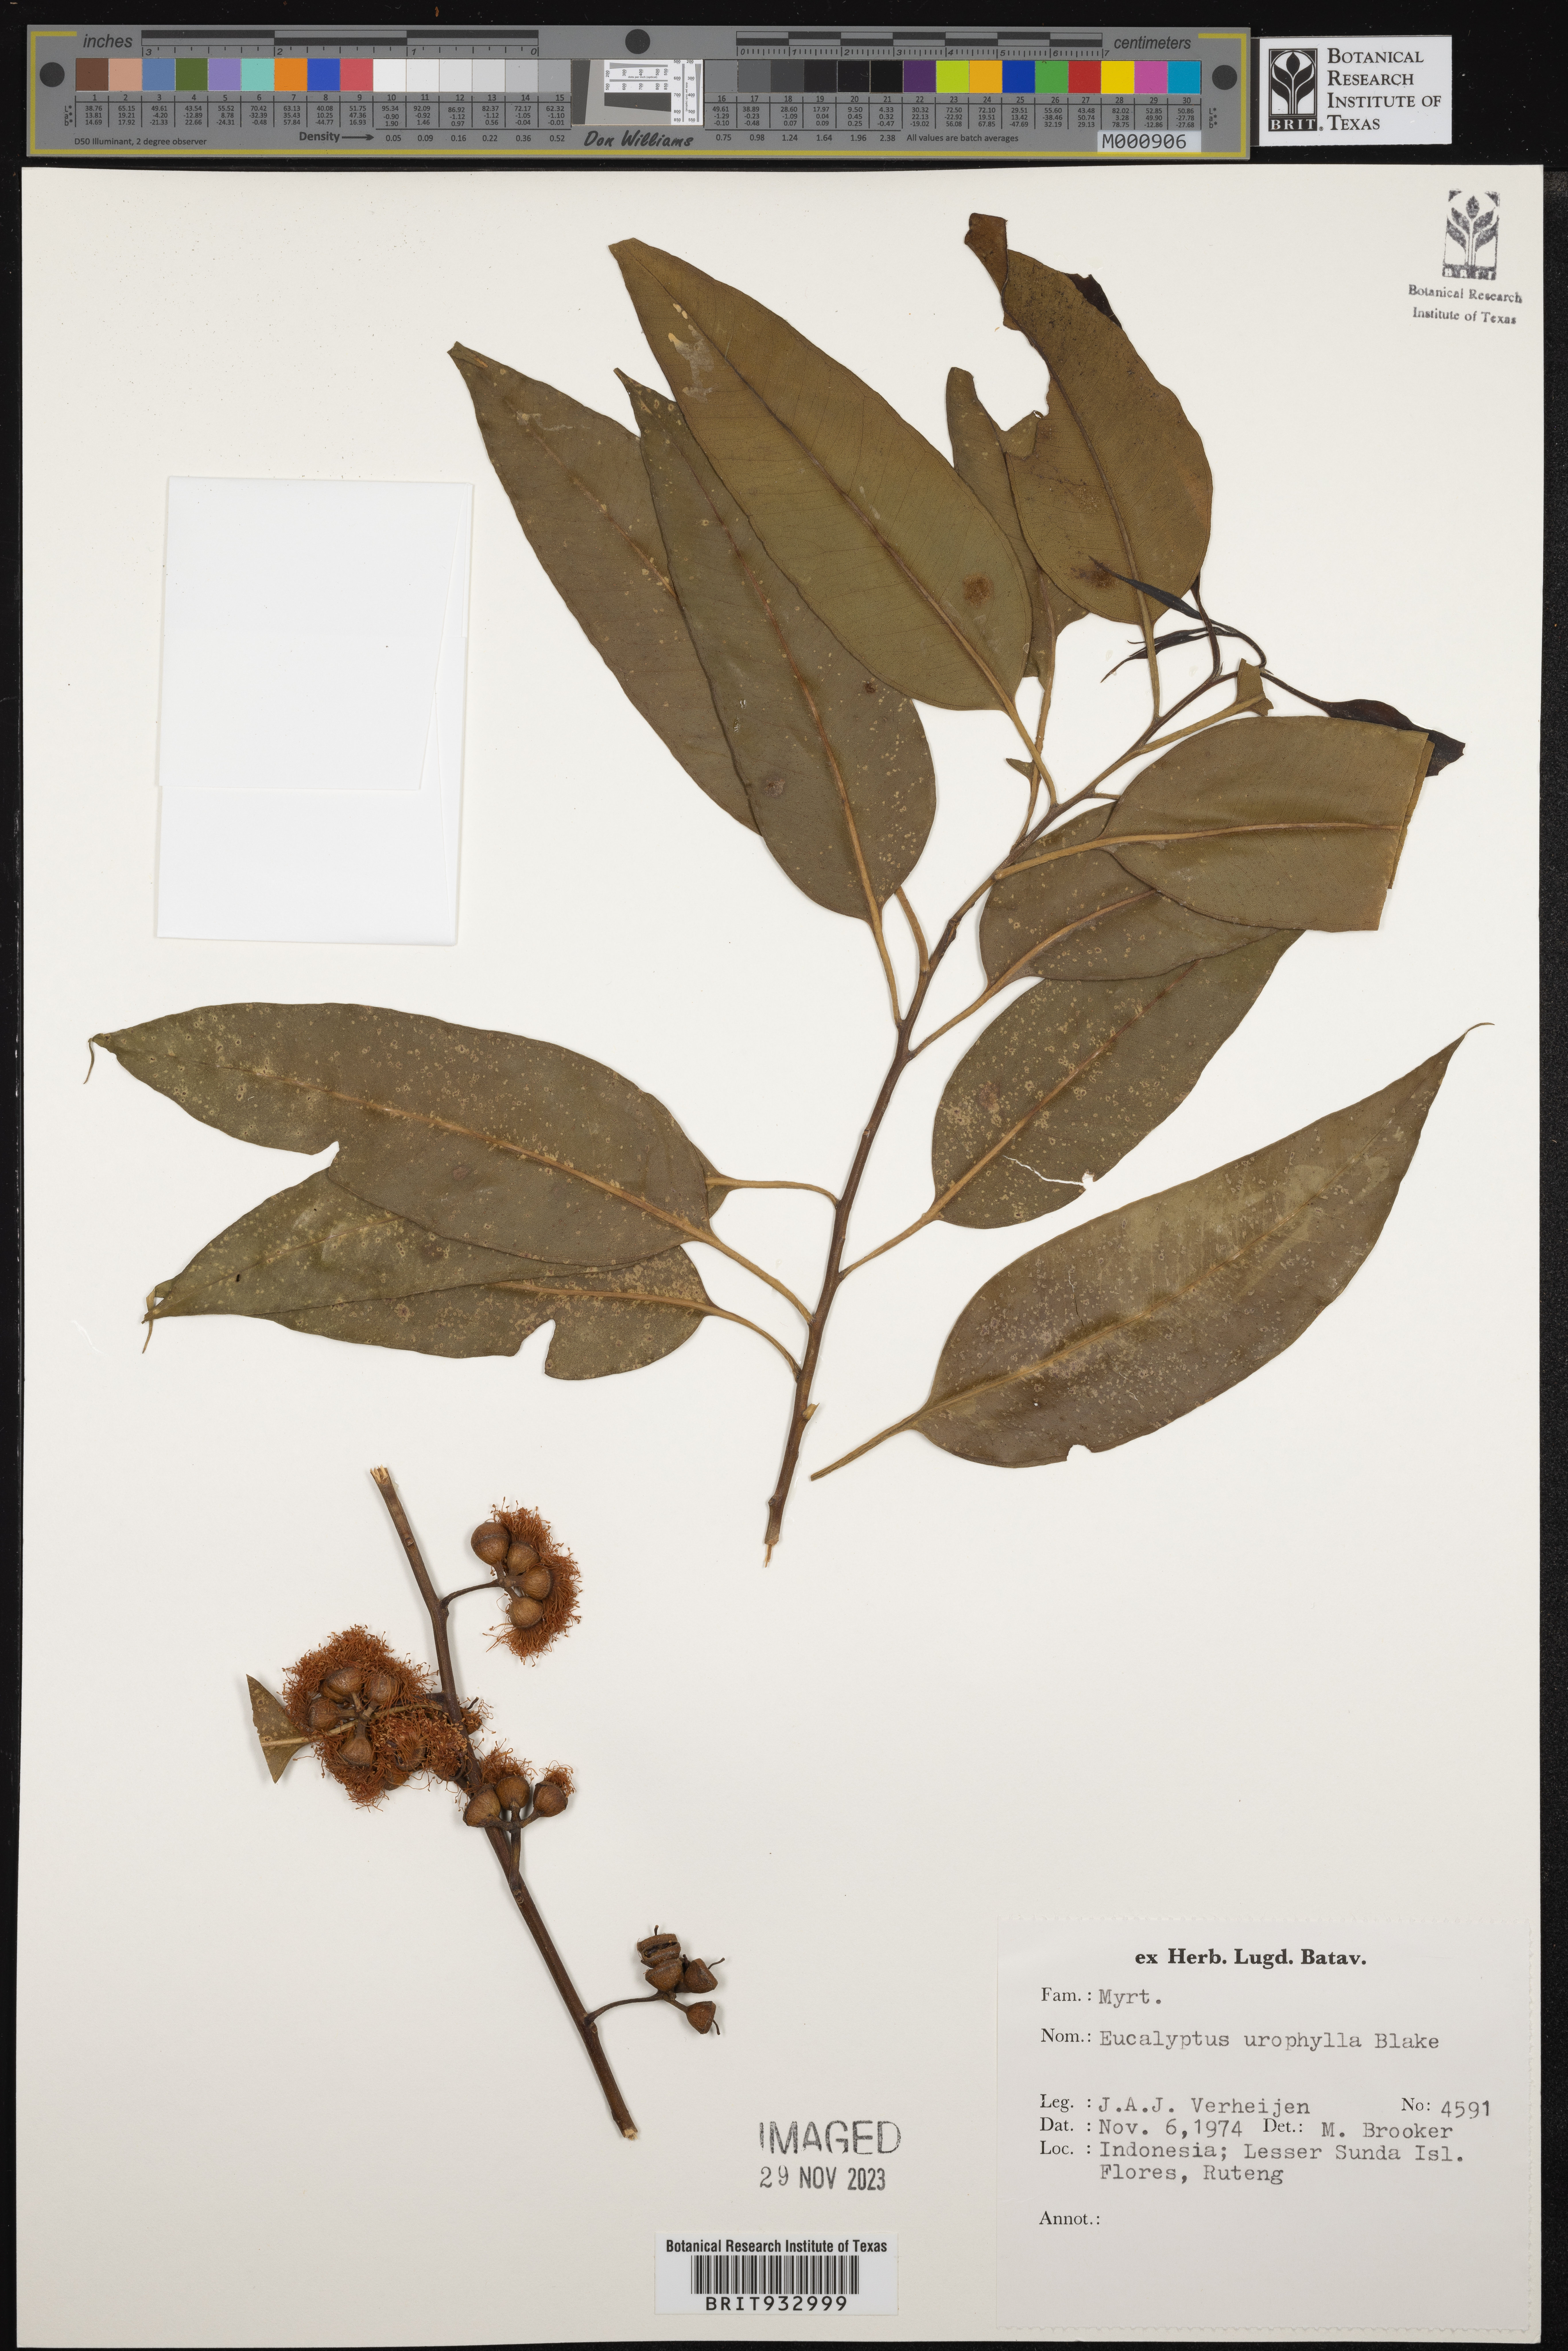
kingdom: Plantae
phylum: Tracheophyta
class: Magnoliopsida
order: Myrtales
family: Myrtaceae
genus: Eucalyptus
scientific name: Eucalyptus
